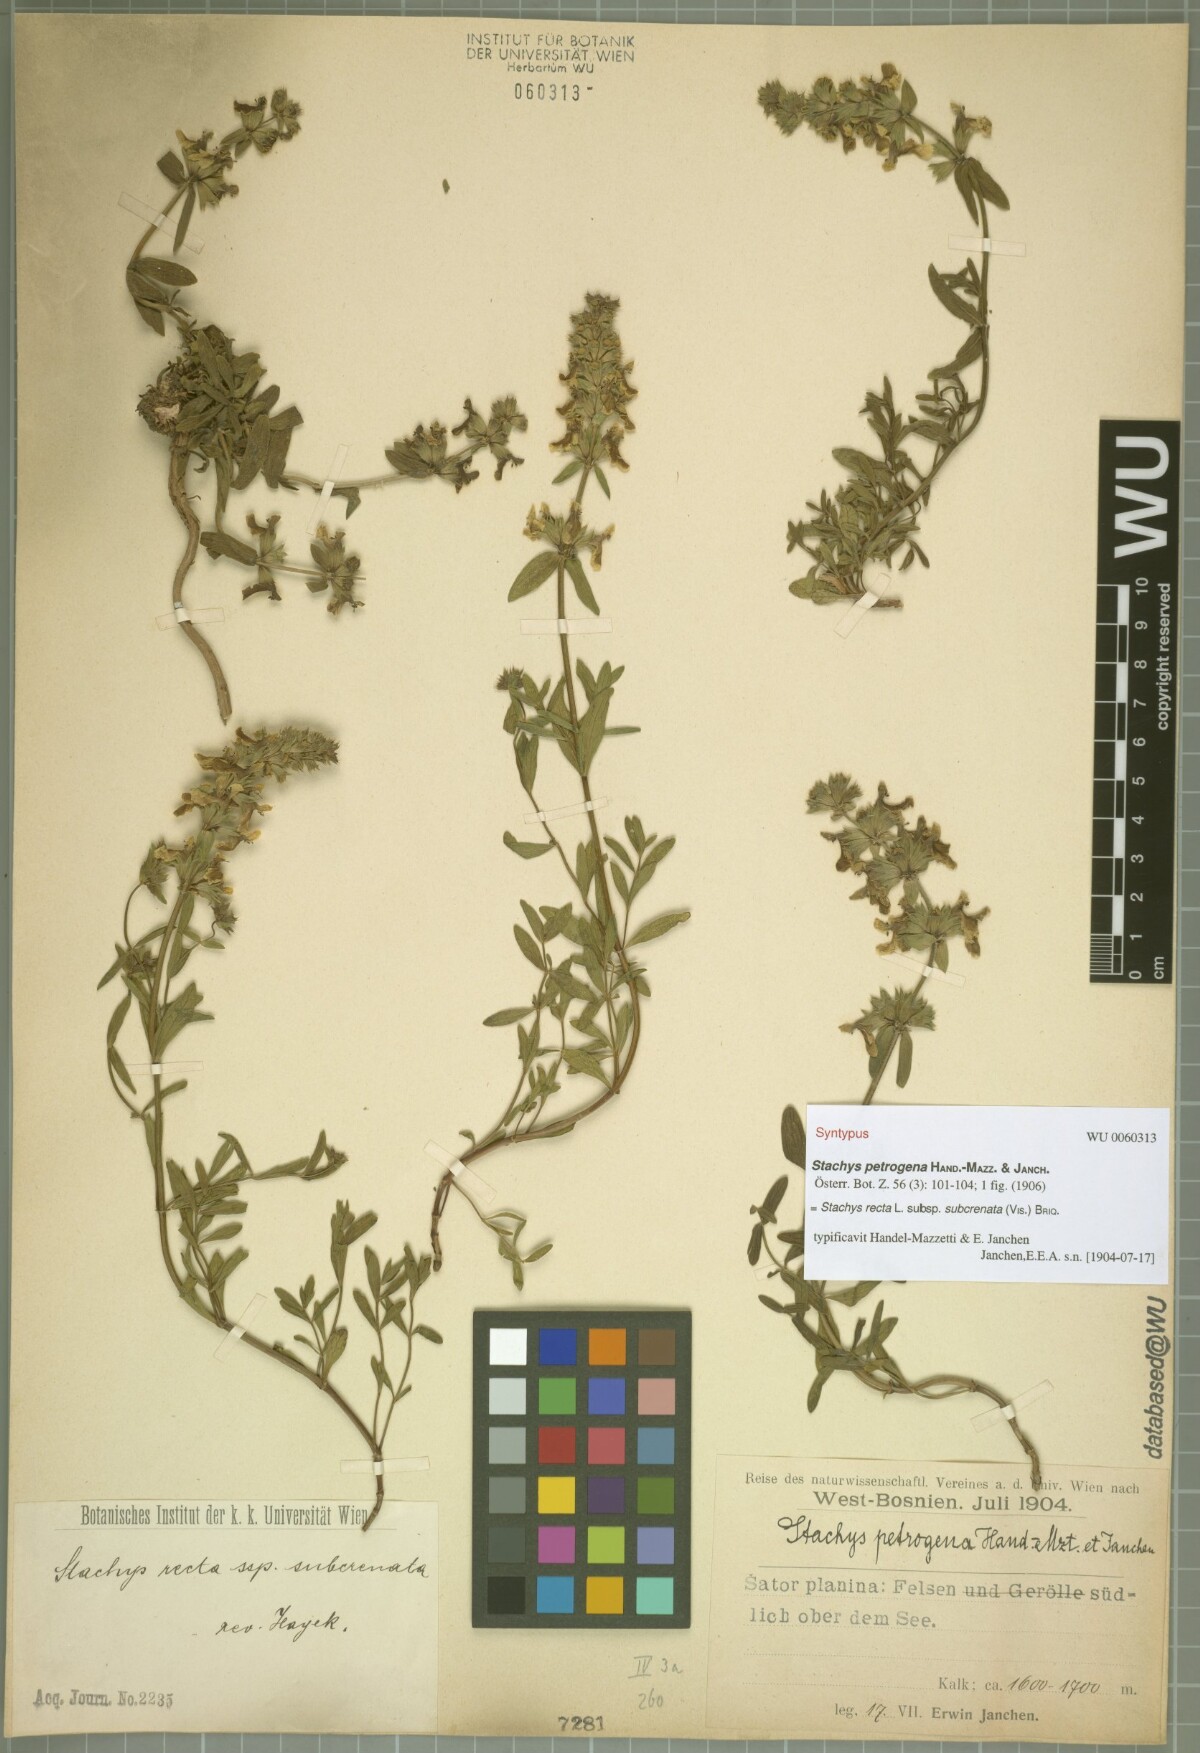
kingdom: Plantae
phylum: Tracheophyta
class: Magnoliopsida
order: Lamiales
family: Lamiaceae
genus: Stachys
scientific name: Stachys recta
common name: Perennial yellow-woundwort
